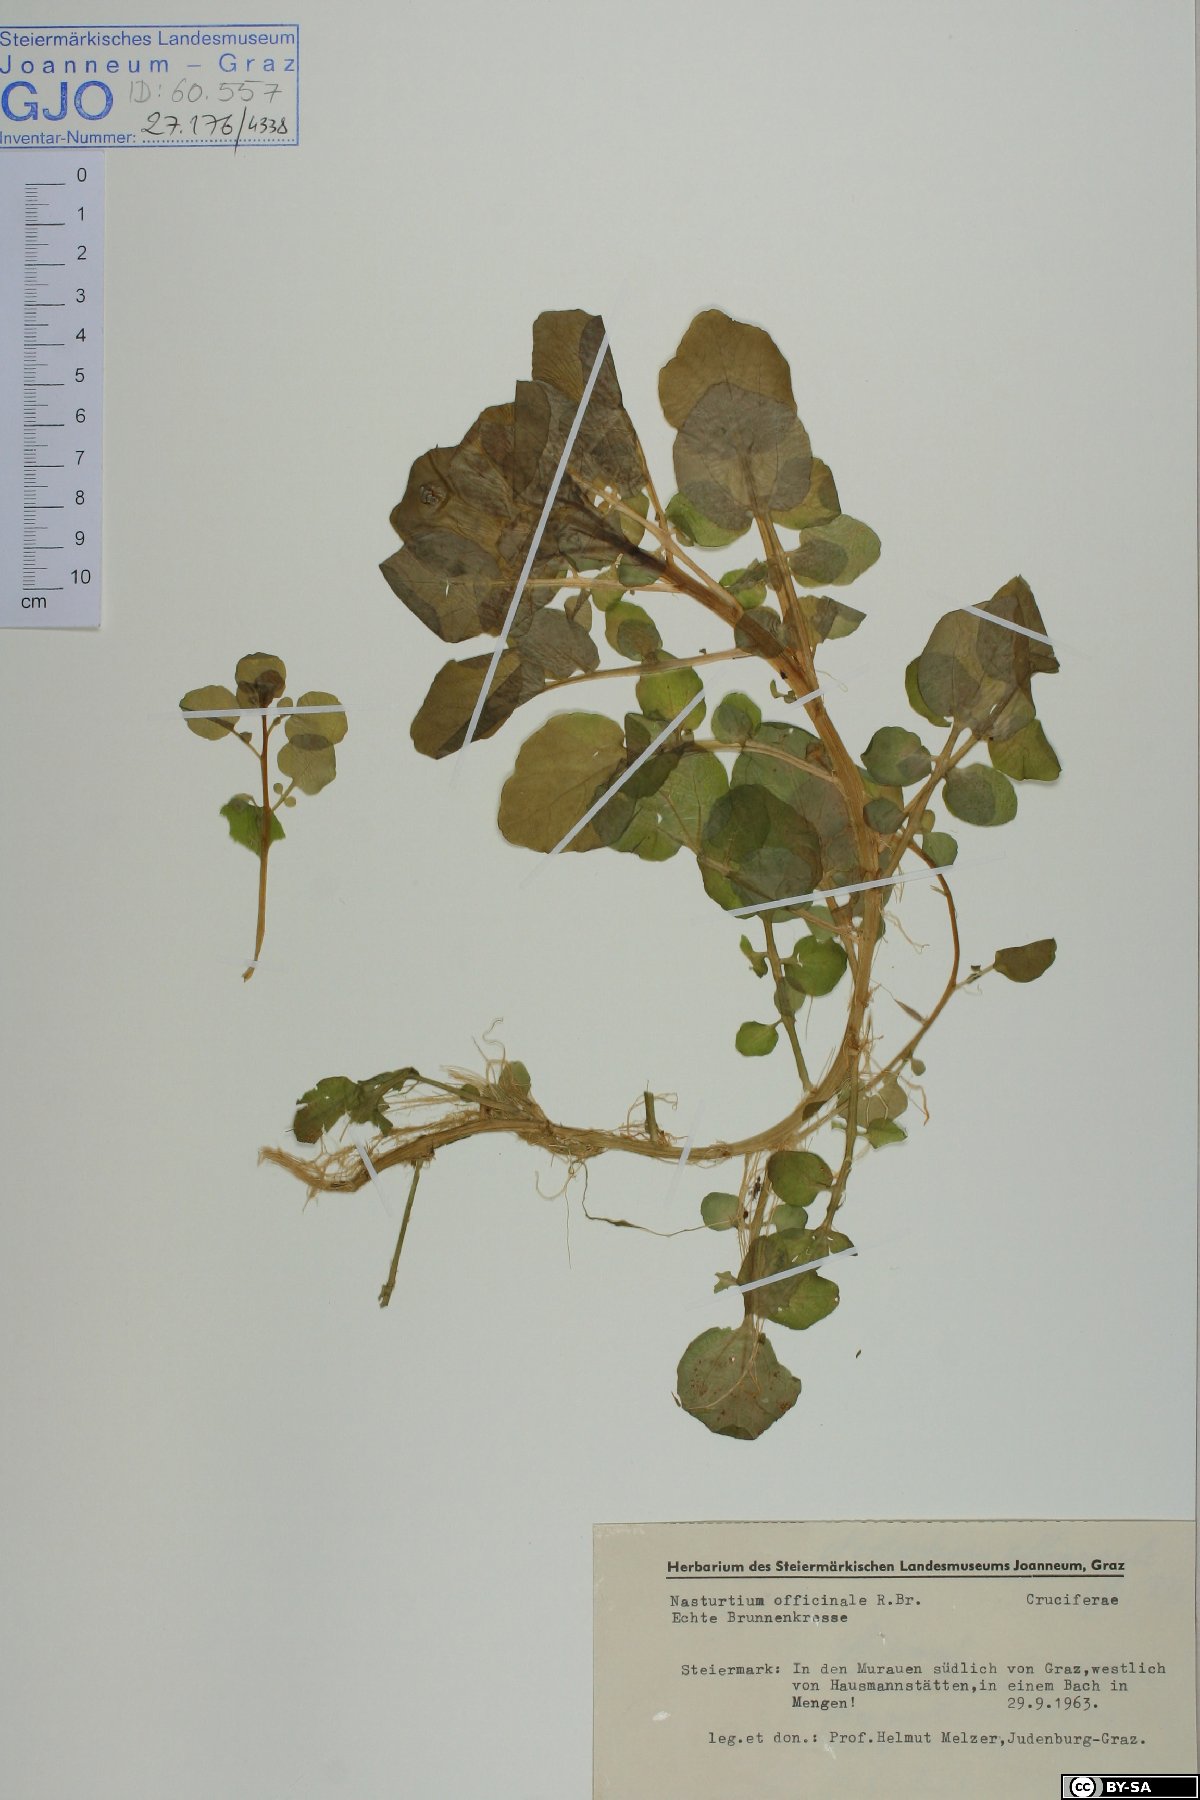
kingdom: Plantae
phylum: Tracheophyta
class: Magnoliopsida
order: Brassicales
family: Brassicaceae
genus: Nasturtium
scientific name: Nasturtium officinale
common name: Watercress
